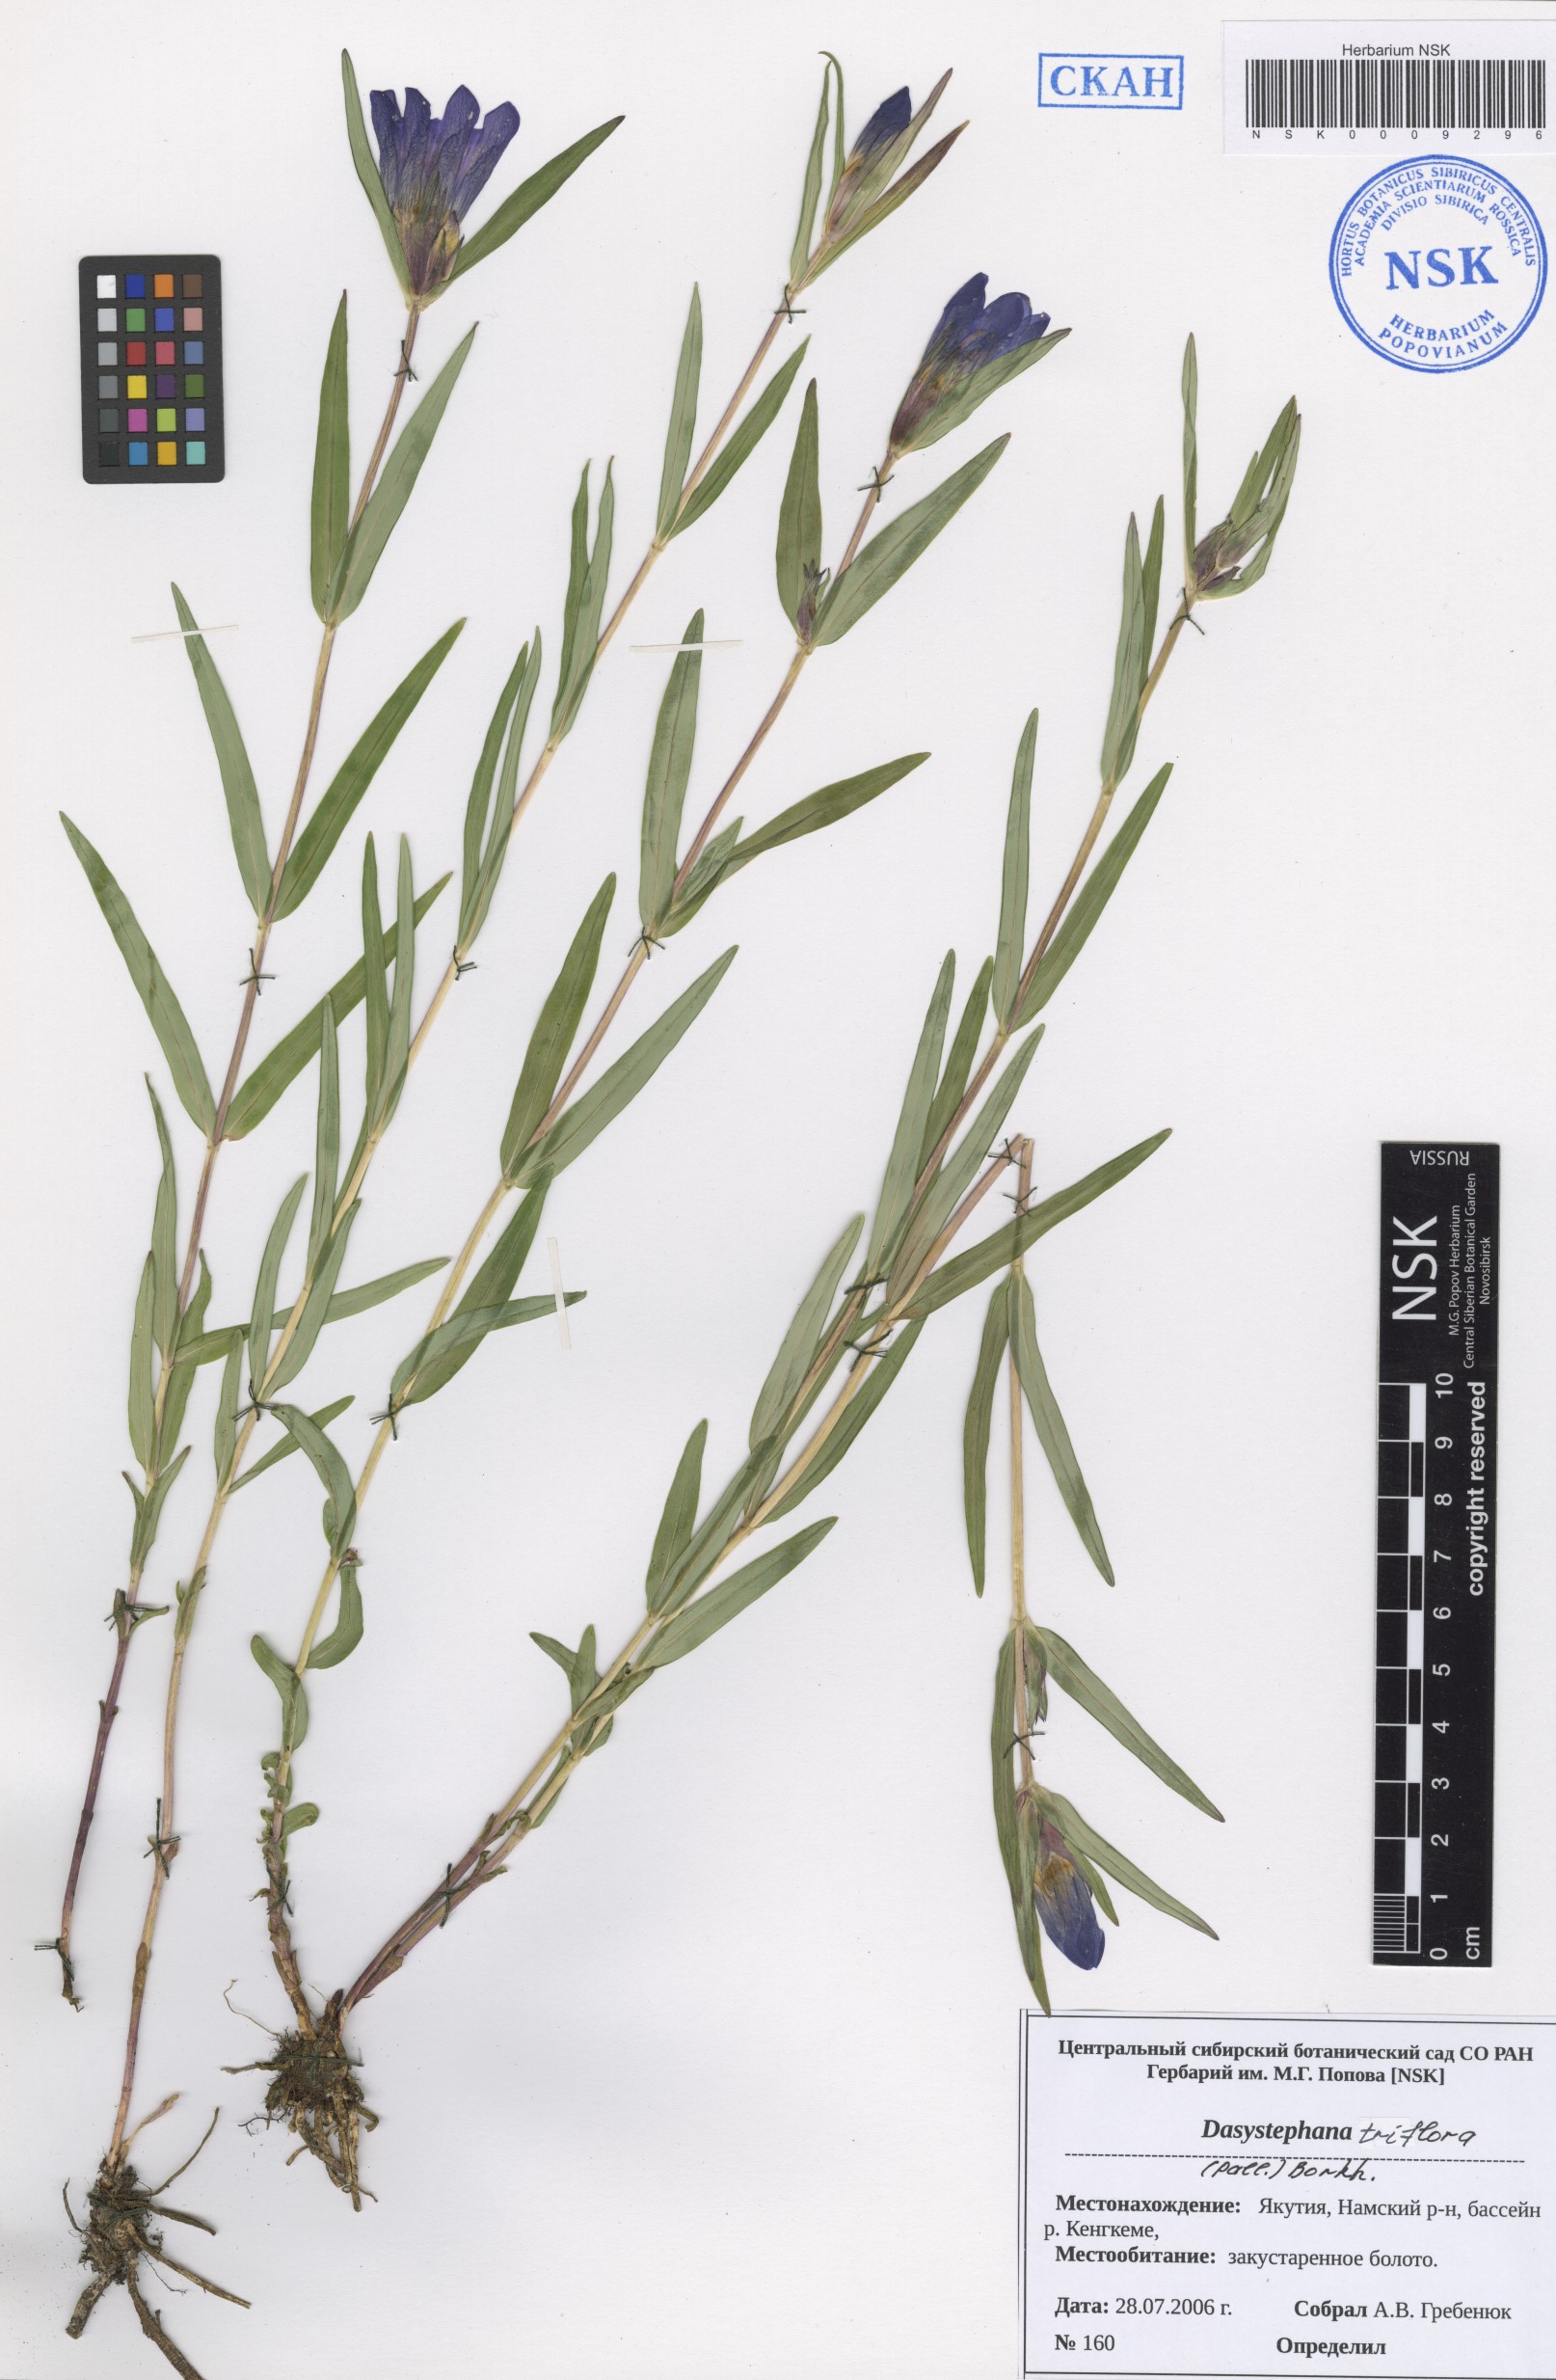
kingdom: Plantae
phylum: Tracheophyta
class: Magnoliopsida
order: Gentianales
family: Gentianaceae
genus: Gentiana
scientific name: Gentiana triflora
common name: Three-flower gentian
